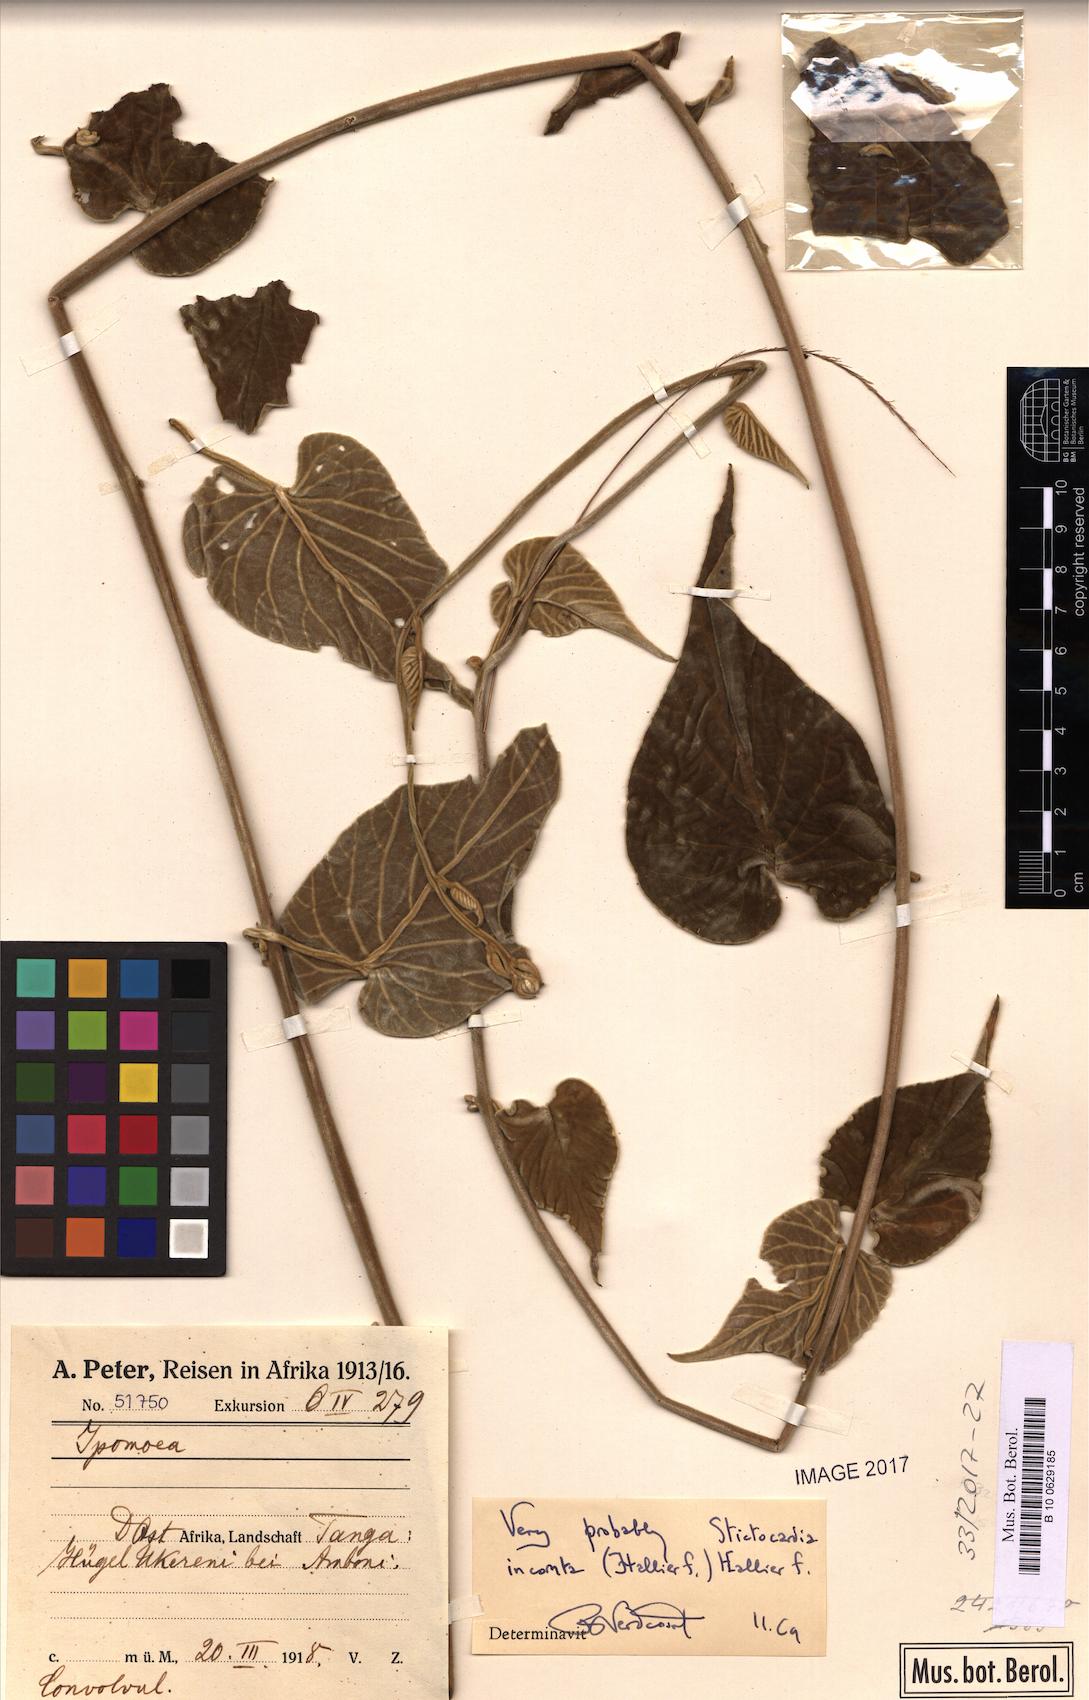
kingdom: Plantae
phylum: Tracheophyta
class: Magnoliopsida
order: Solanales
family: Convolvulaceae
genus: Stictocardia
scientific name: Stictocardia incomta
